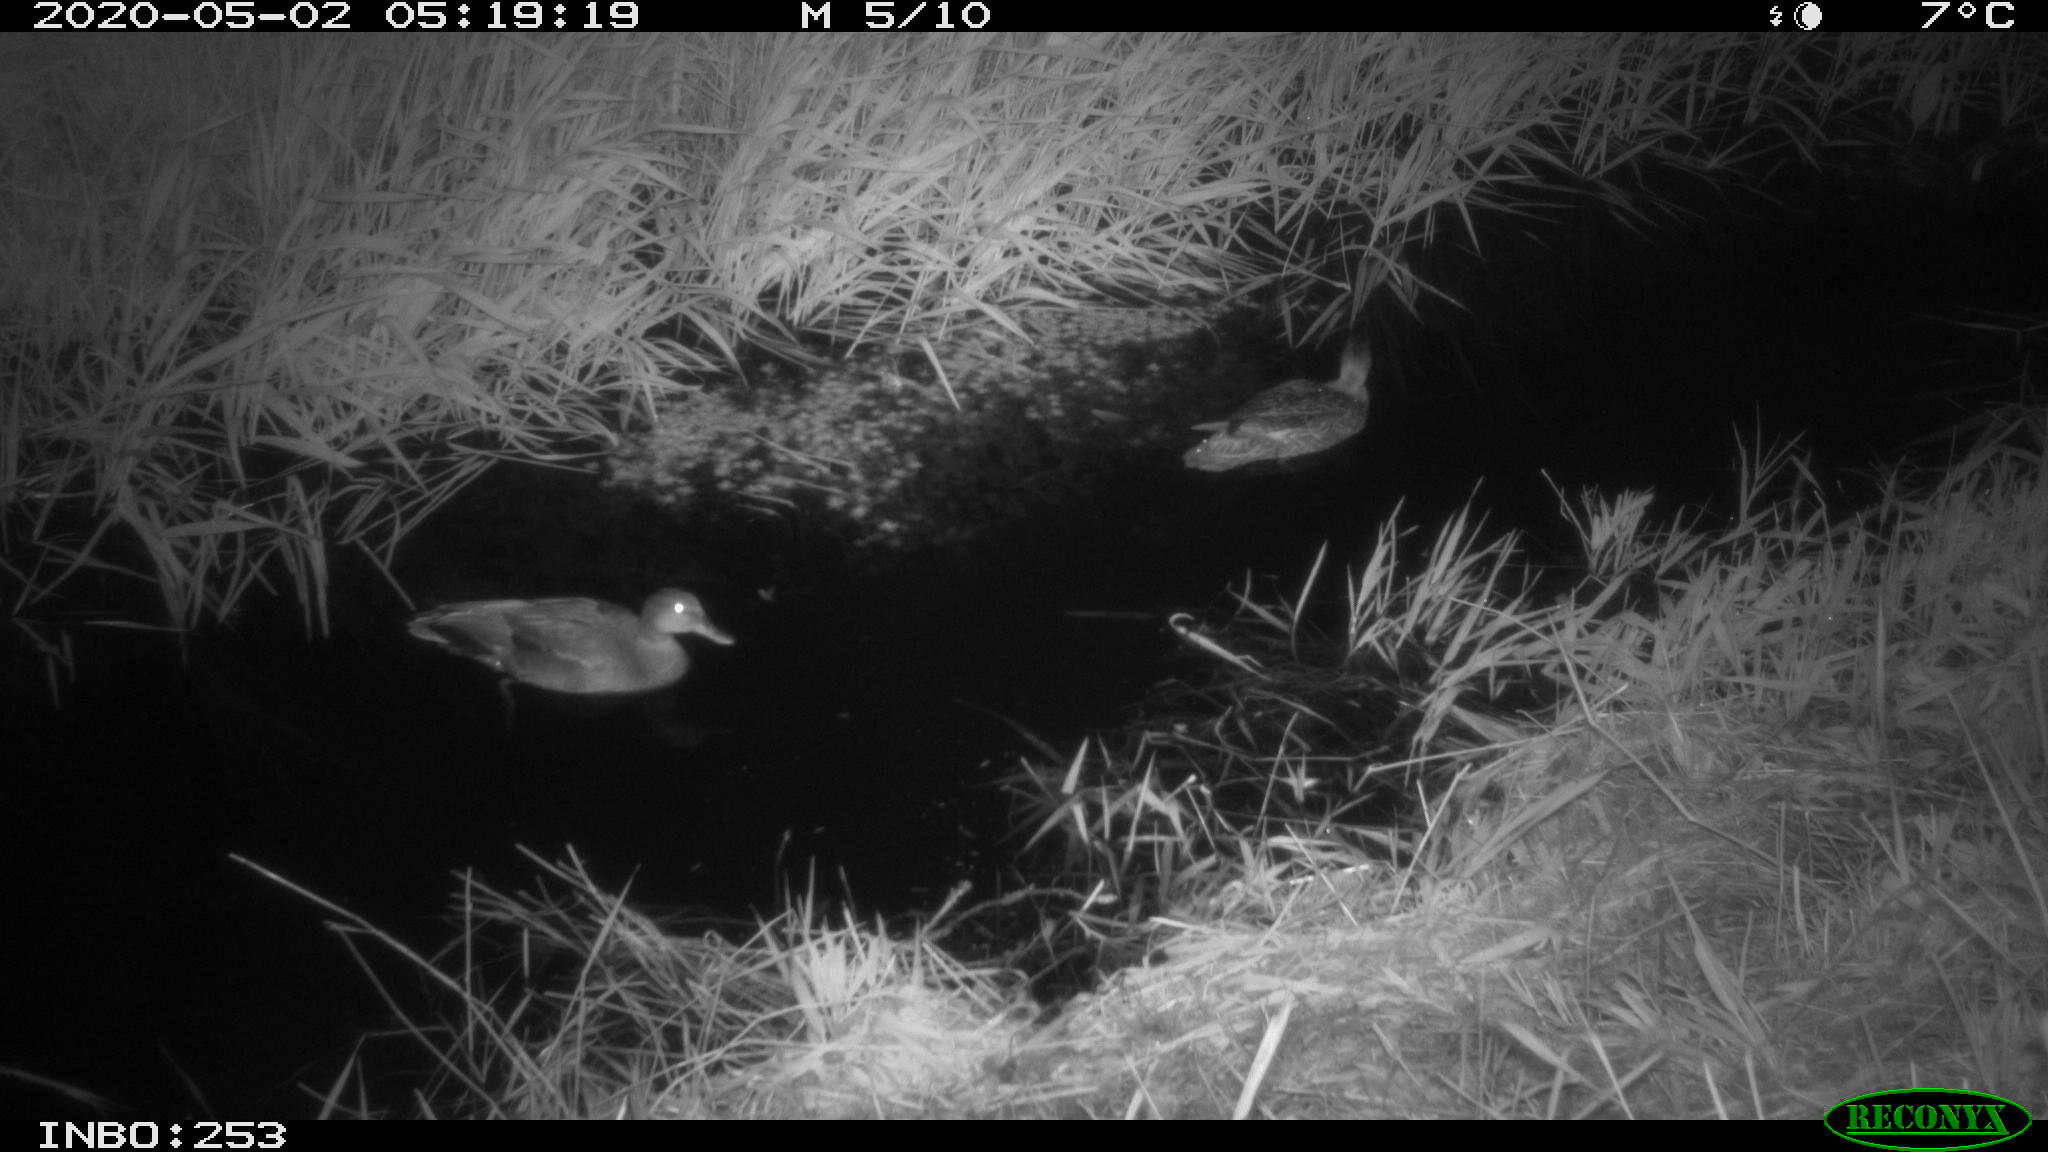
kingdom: Animalia
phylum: Chordata
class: Aves
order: Anseriformes
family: Anatidae
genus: Mareca
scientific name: Mareca strepera
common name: Gadwall
